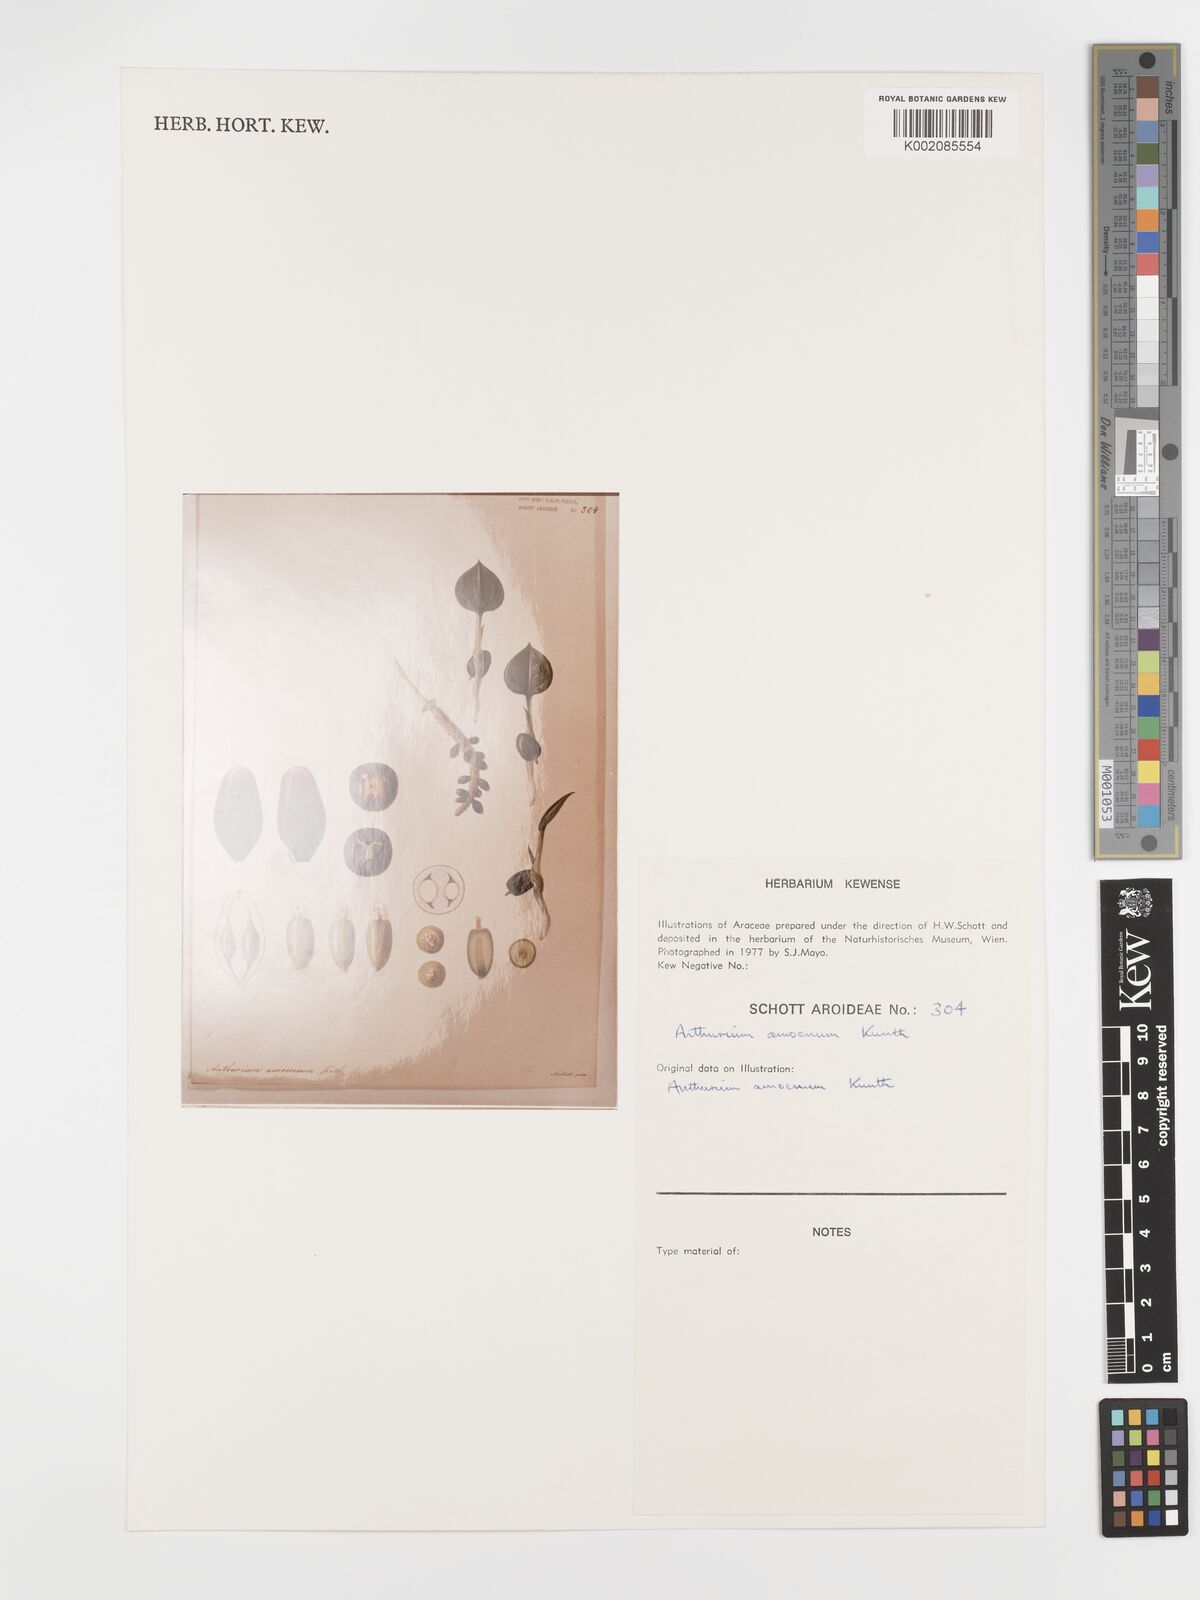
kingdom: Plantae
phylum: Tracheophyta
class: Liliopsida
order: Alismatales
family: Araceae
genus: Anthurium
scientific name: Anthurium amoenum
